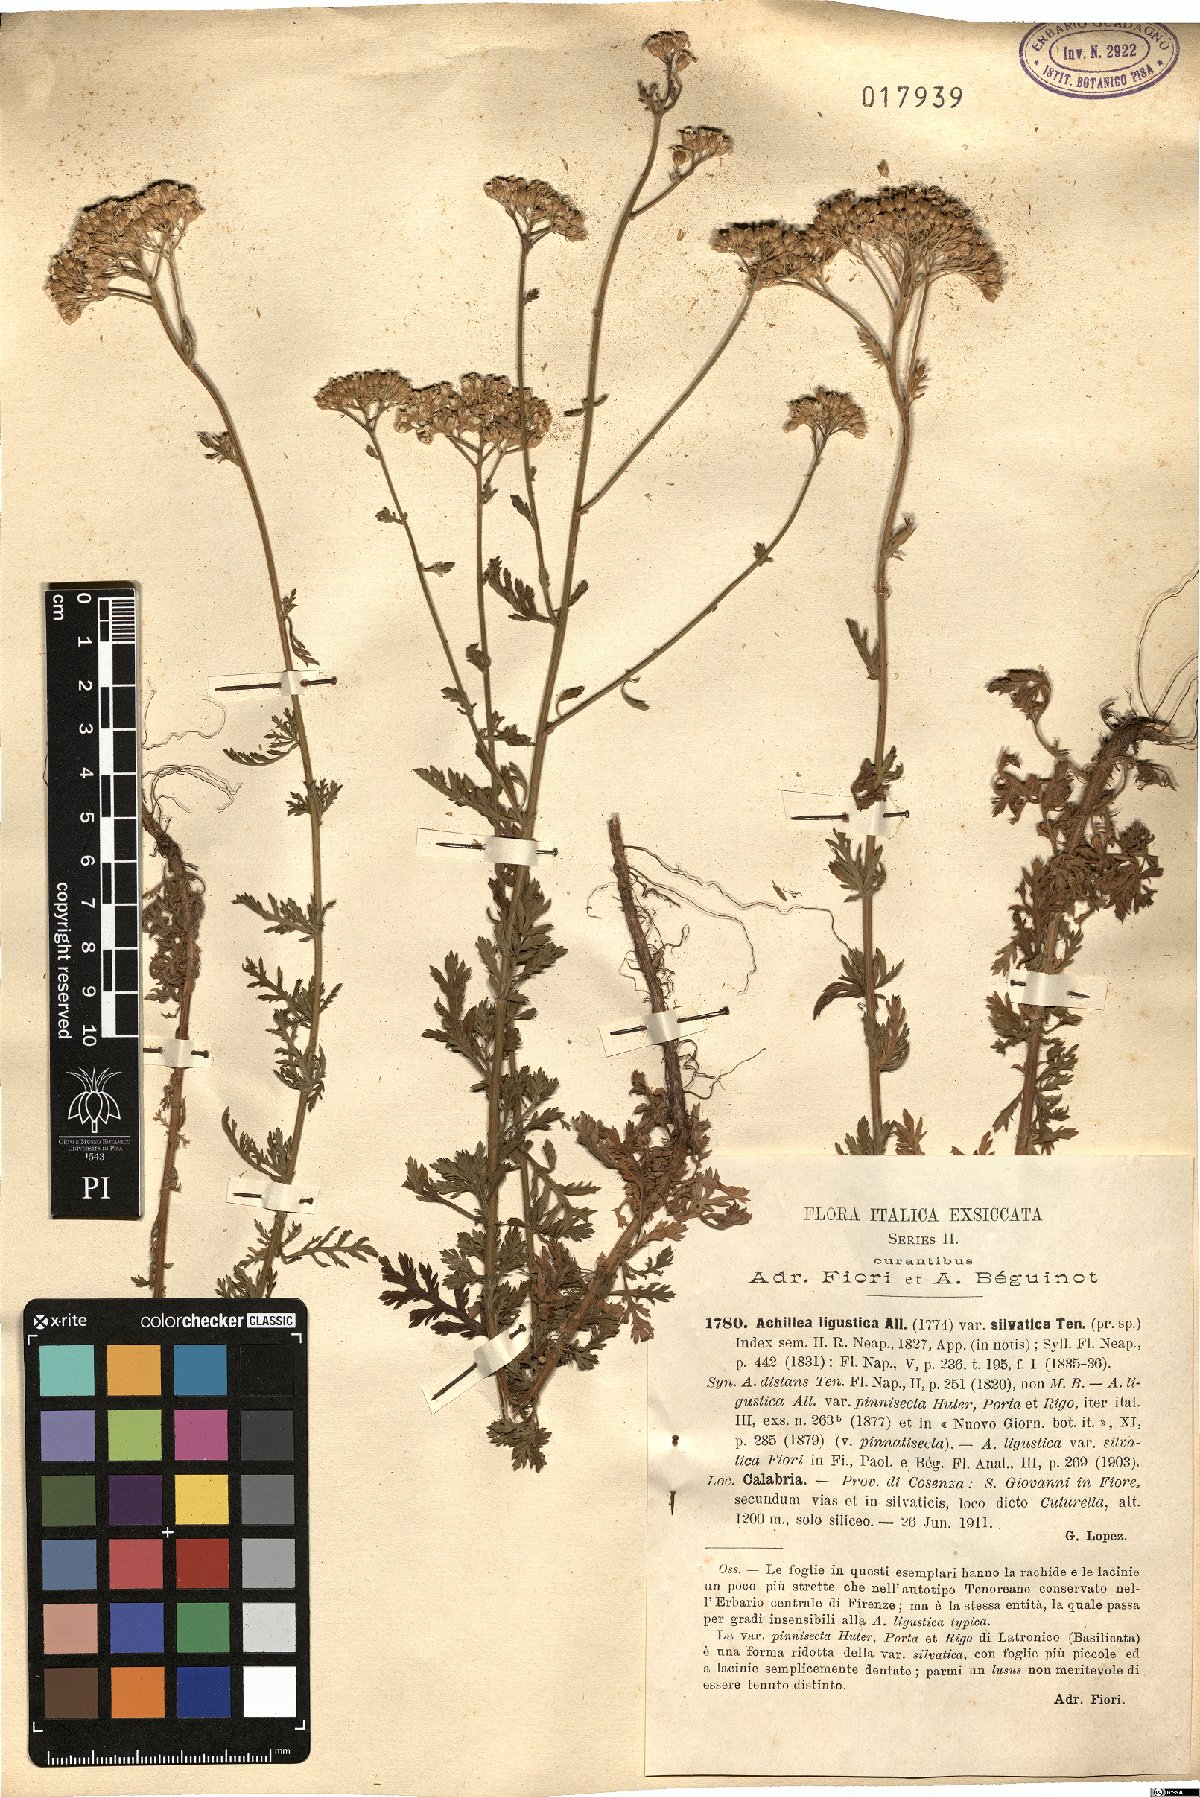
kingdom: Plantae
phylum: Tracheophyta
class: Magnoliopsida
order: Asterales
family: Asteraceae
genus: Achillea
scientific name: Achillea ligustica
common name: Southern yarrow
